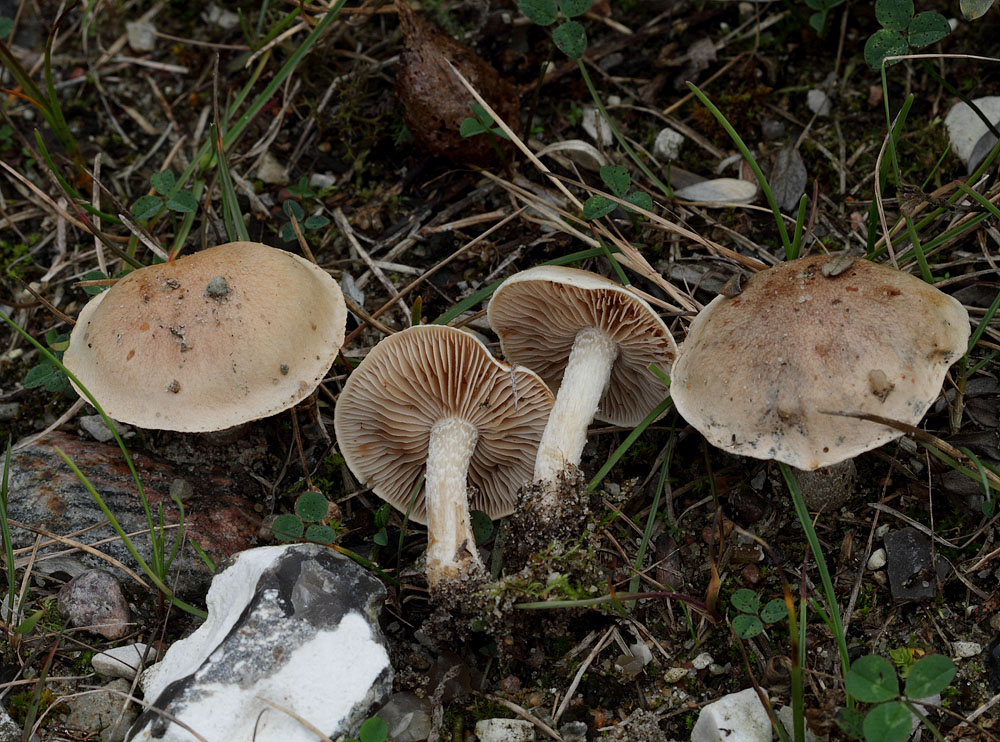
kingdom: Fungi
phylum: Basidiomycota
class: Agaricomycetes
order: Agaricales
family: Hymenogastraceae
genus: Hebeloma
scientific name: Hebeloma vaccinum
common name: ko-tåreblad
